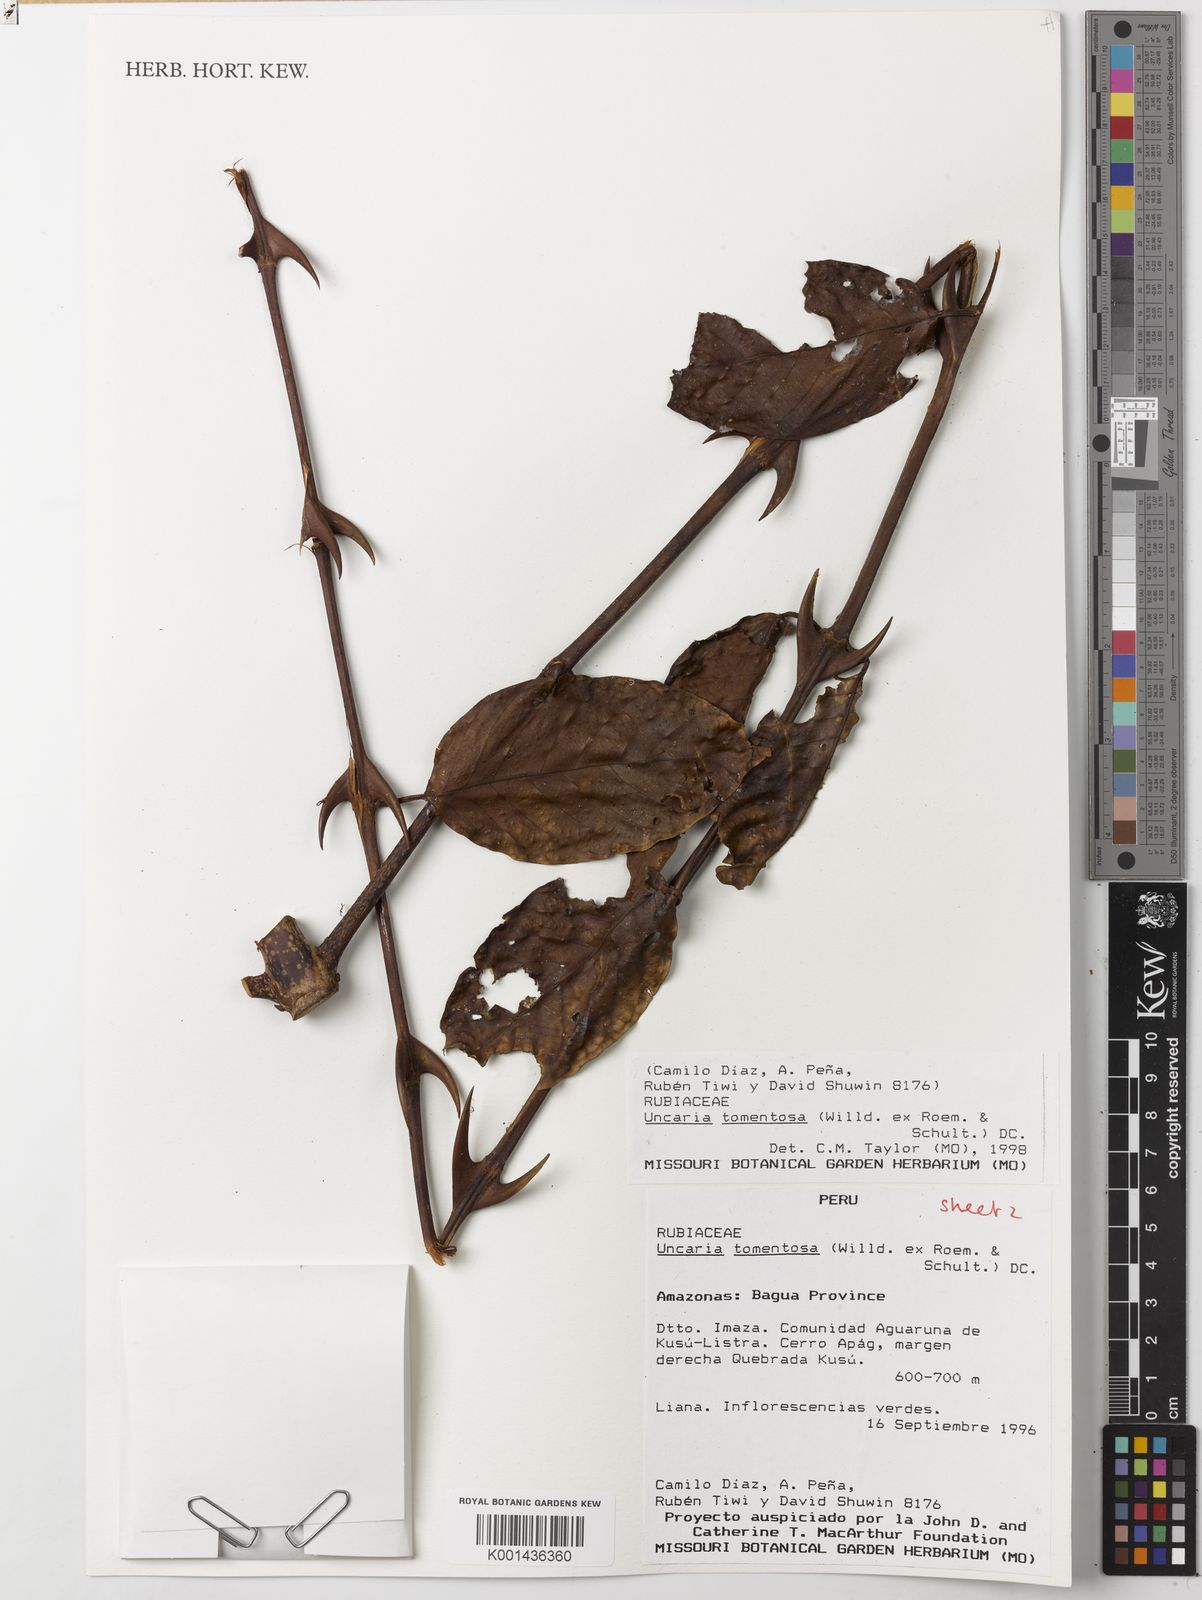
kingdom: Plantae
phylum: Tracheophyta
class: Magnoliopsida
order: Gentianales
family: Rubiaceae
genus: Uncaria
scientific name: Uncaria tomentosa
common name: Cat's-claw
